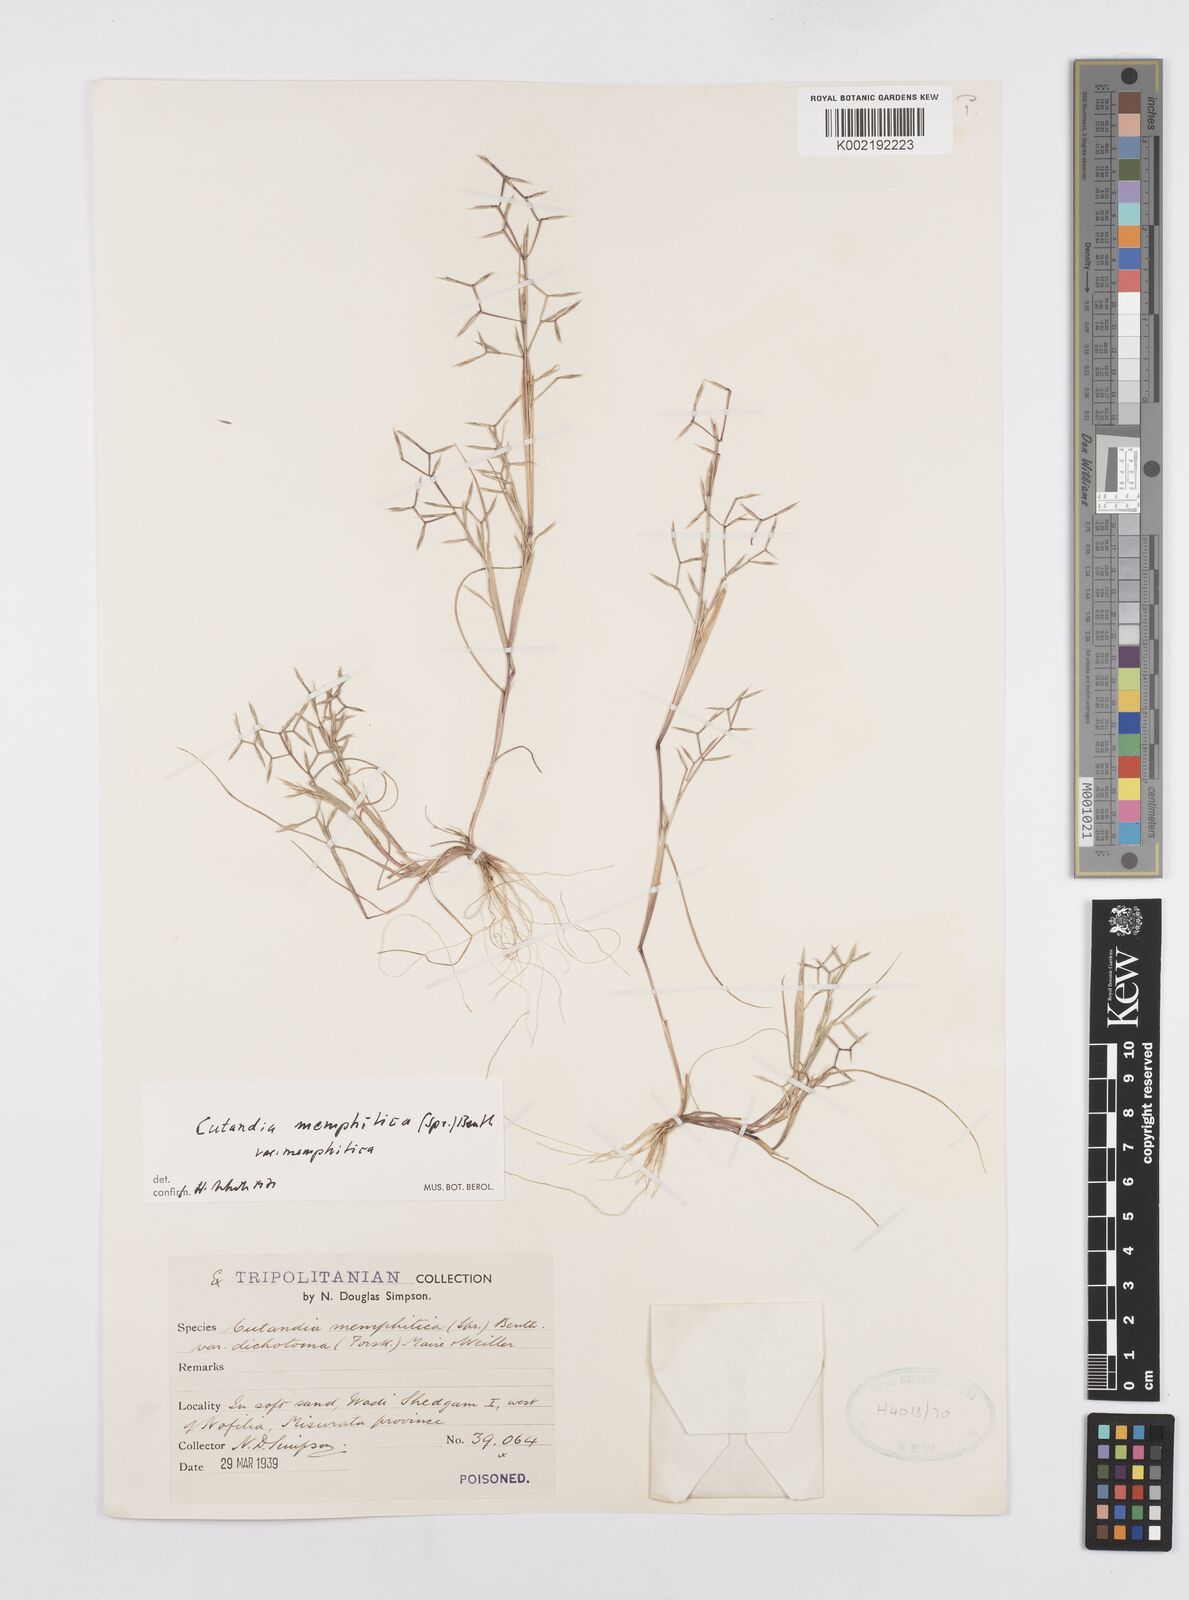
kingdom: Plantae
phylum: Tracheophyta
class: Liliopsida
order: Poales
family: Poaceae
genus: Cutandia
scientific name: Cutandia memphitica
